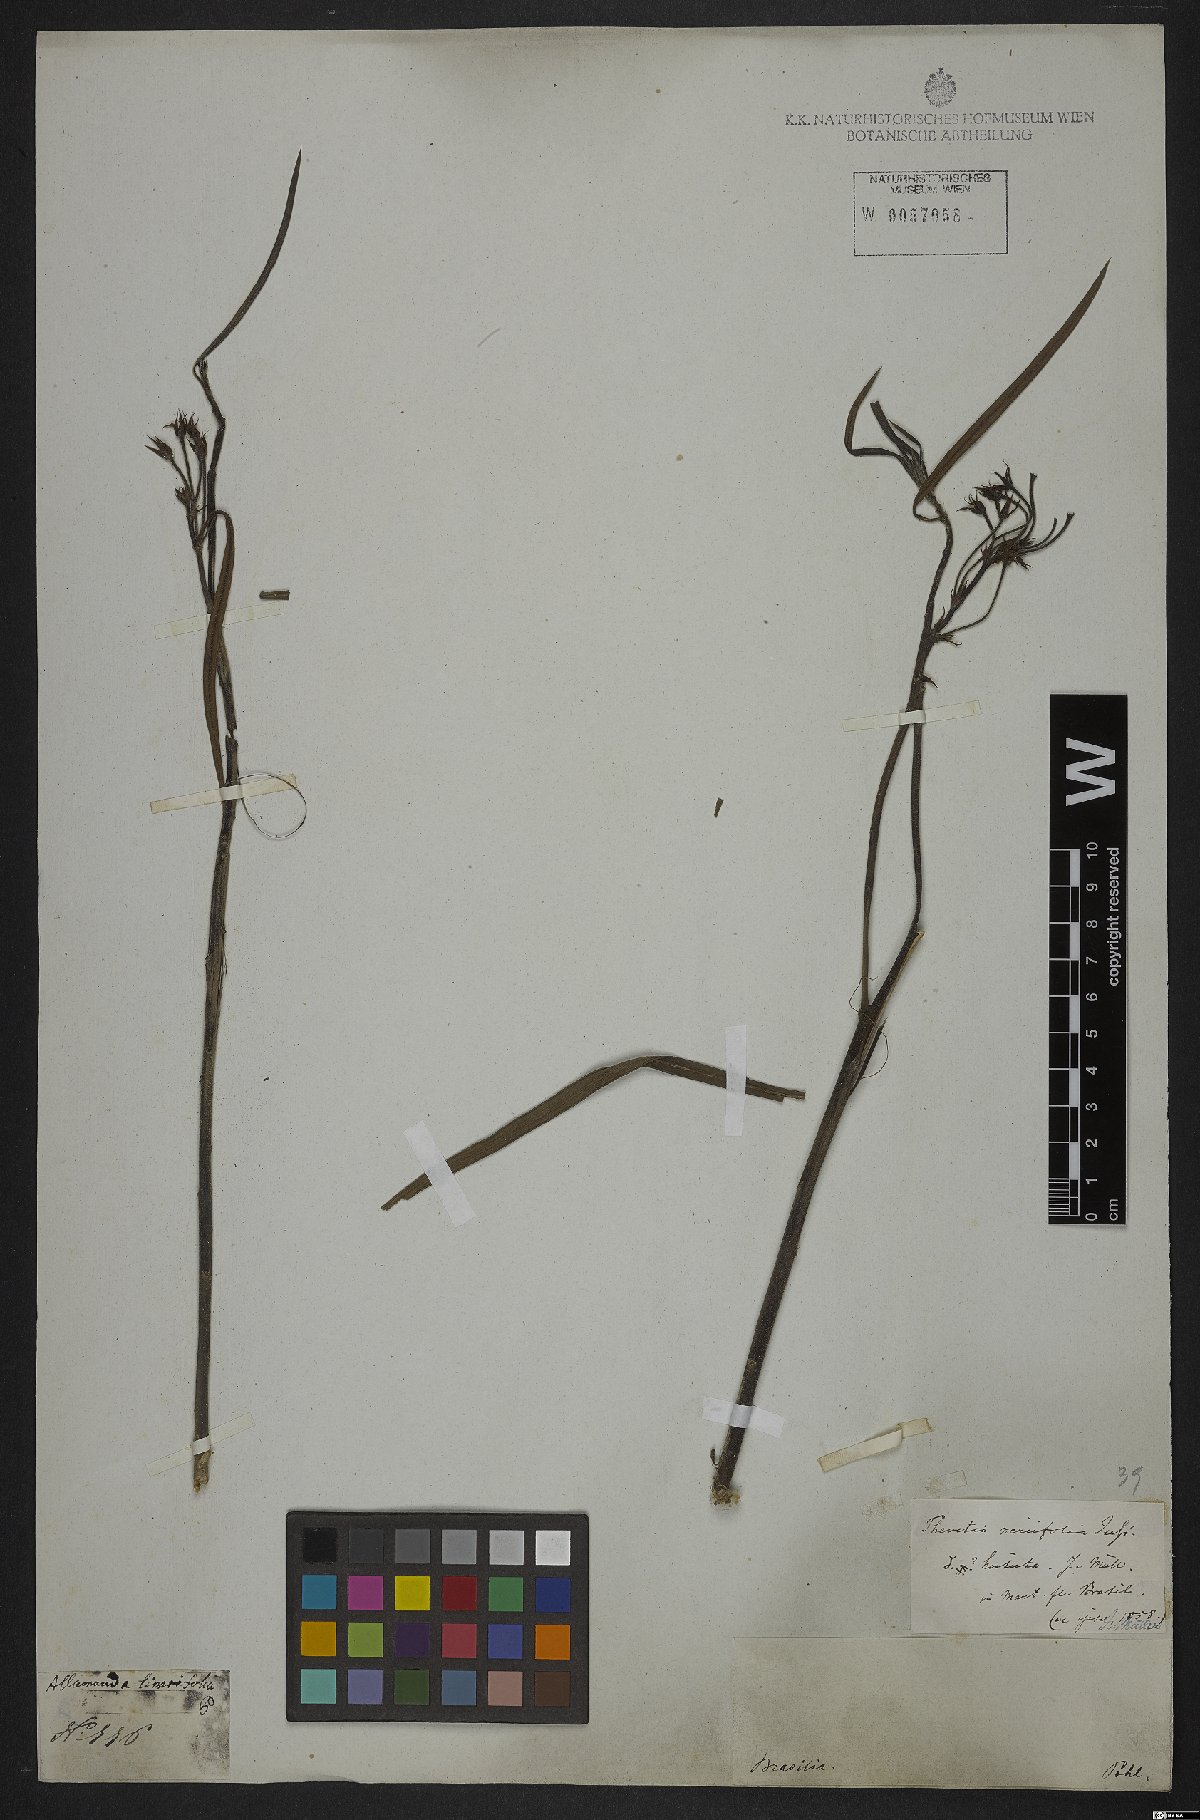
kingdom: Plantae
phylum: Tracheophyta
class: Magnoliopsida
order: Gentianales
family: Apocynaceae
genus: Cascabela
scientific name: Cascabela thevetia
